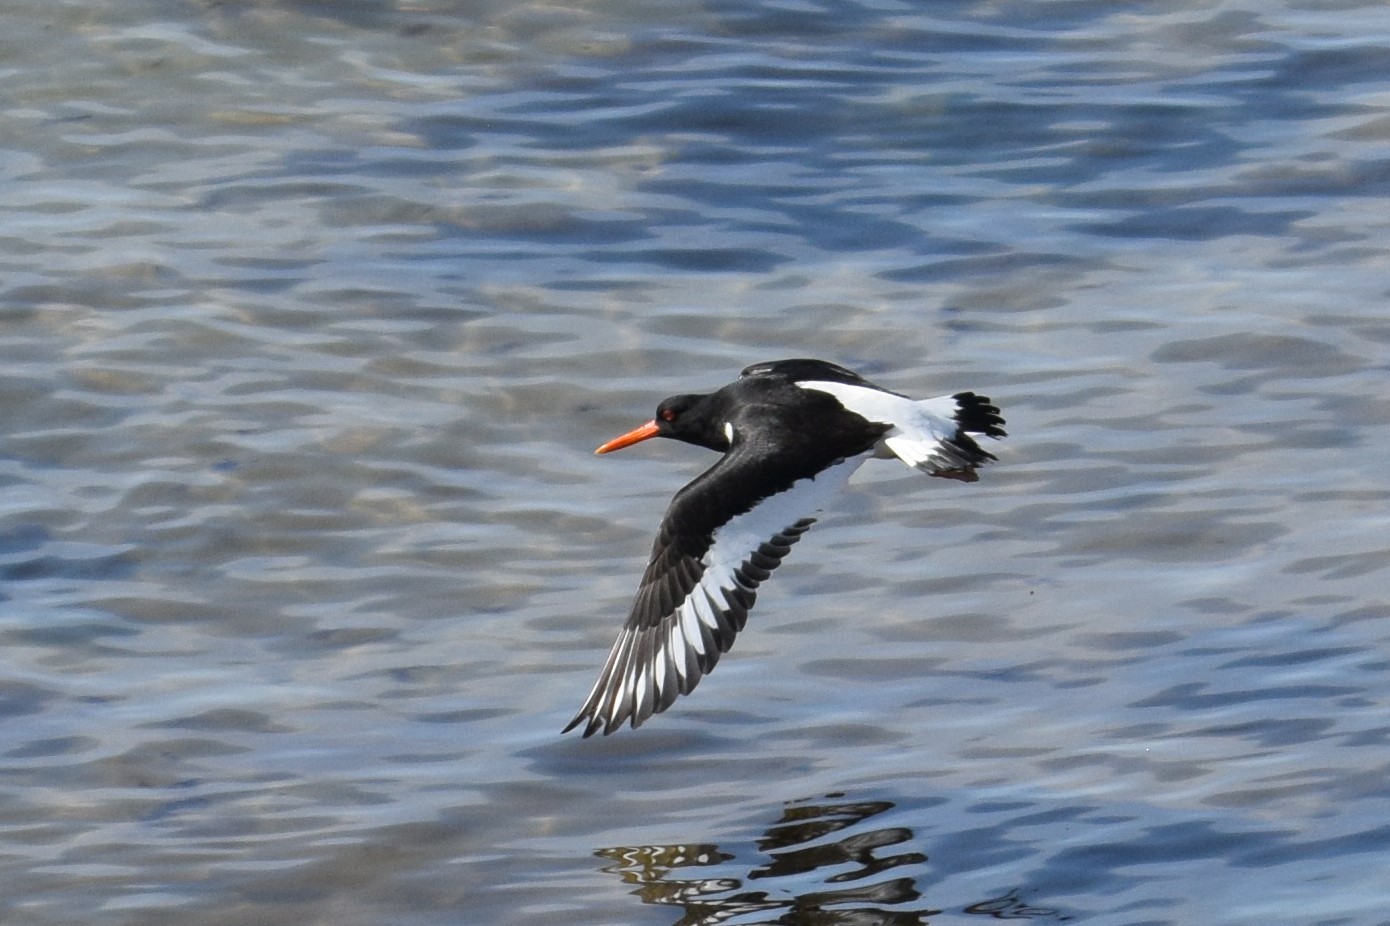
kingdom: Animalia
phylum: Chordata
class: Aves
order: Charadriiformes
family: Haematopodidae
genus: Haematopus
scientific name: Haematopus ostralegus
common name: Strandskade
